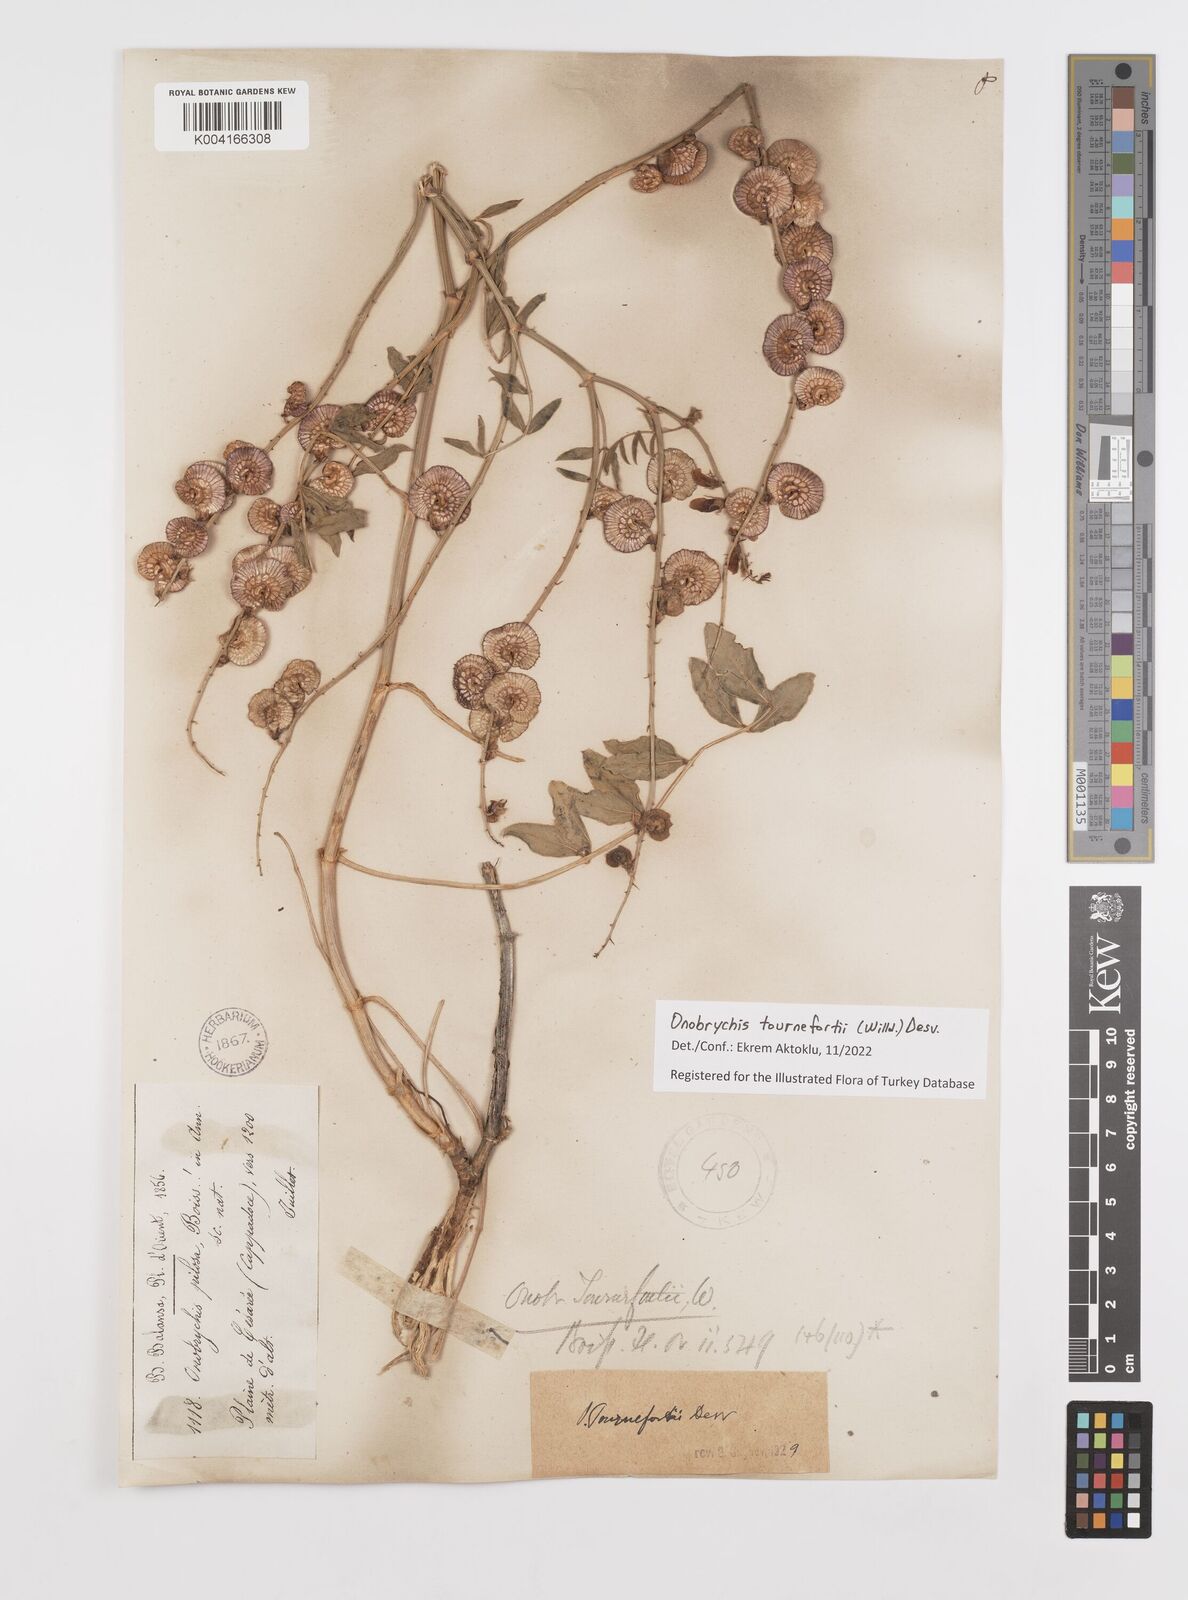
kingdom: Plantae
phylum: Tracheophyta
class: Magnoliopsida
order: Fabales
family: Fabaceae
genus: Onobrychis
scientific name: Onobrychis tournefortii
